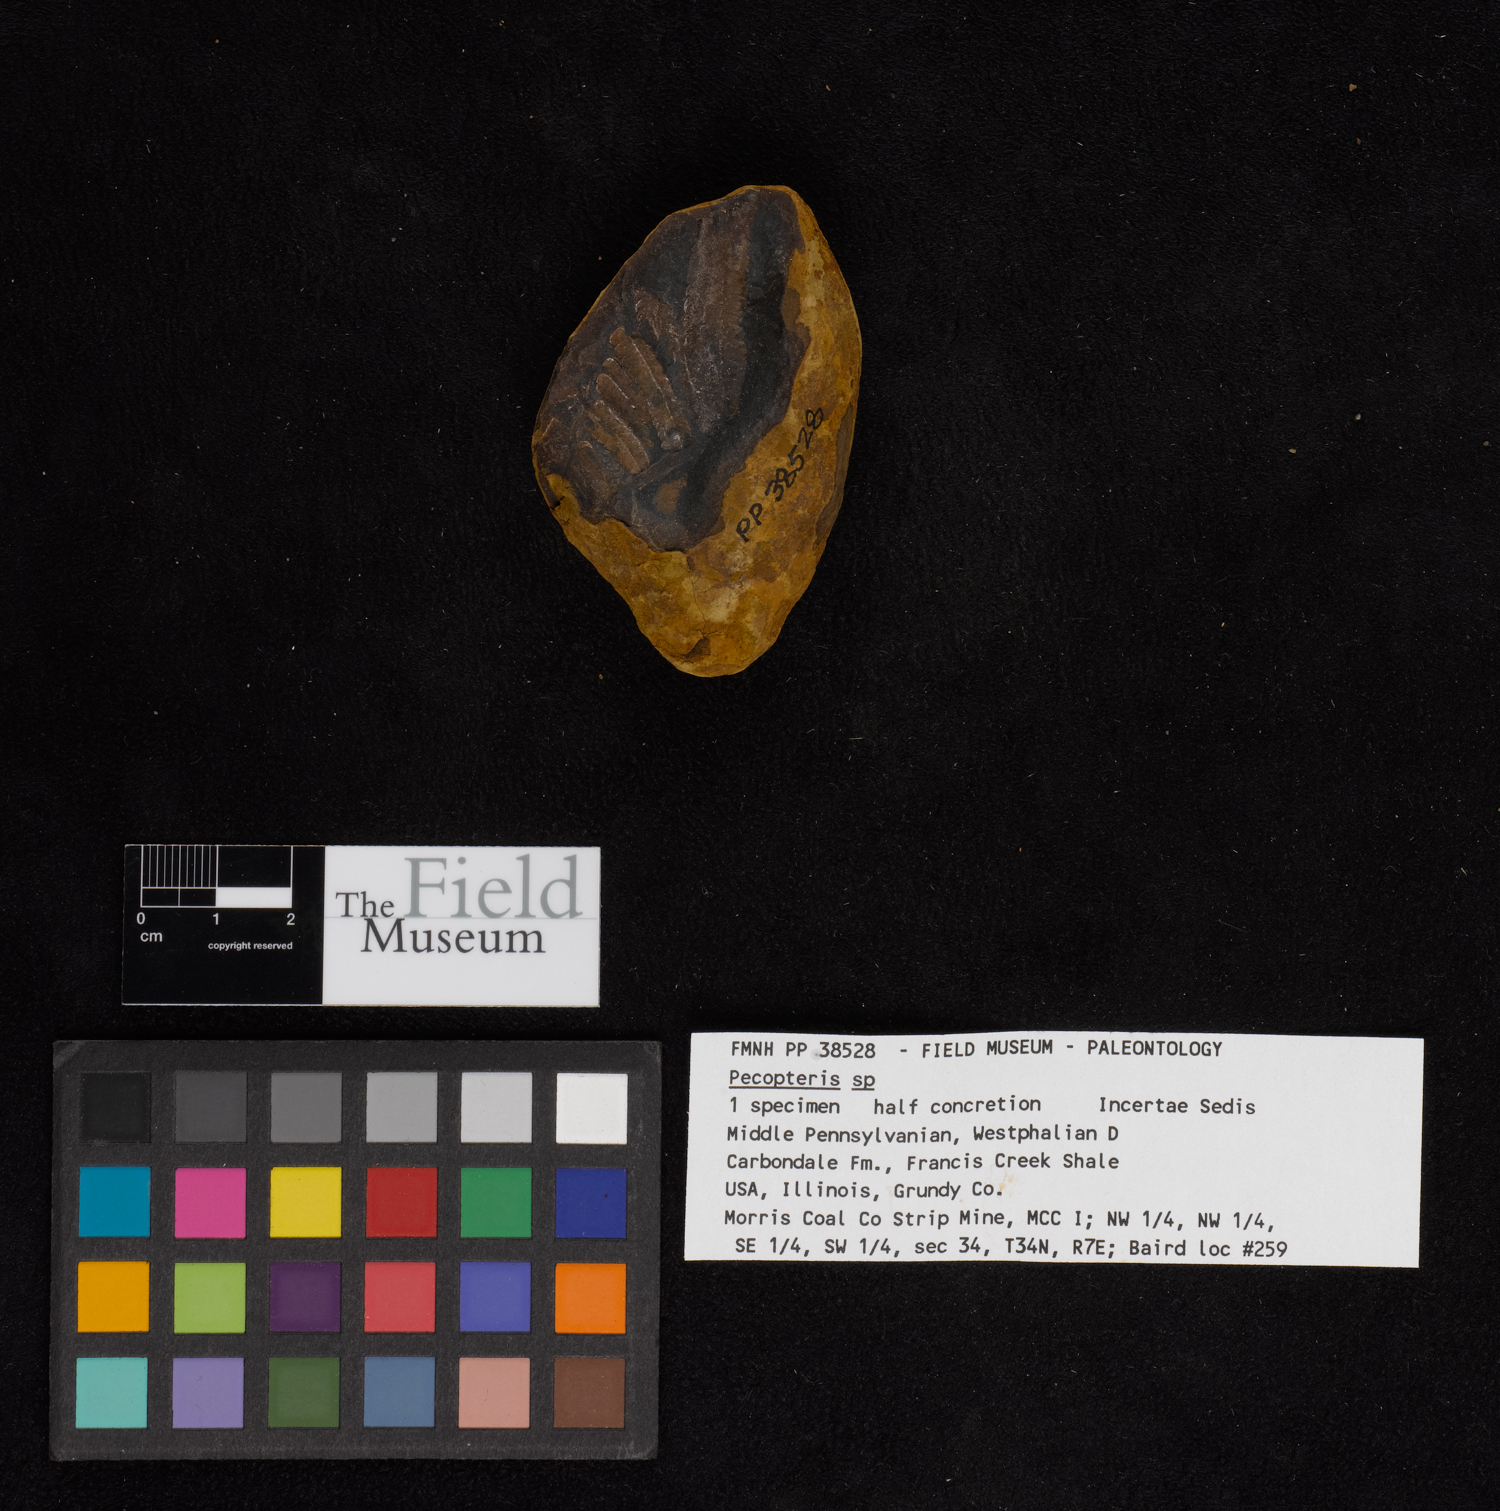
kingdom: Plantae
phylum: Tracheophyta
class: Polypodiopsida
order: Marattiales
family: Asterothecaceae
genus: Pecopteris
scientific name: Pecopteris
